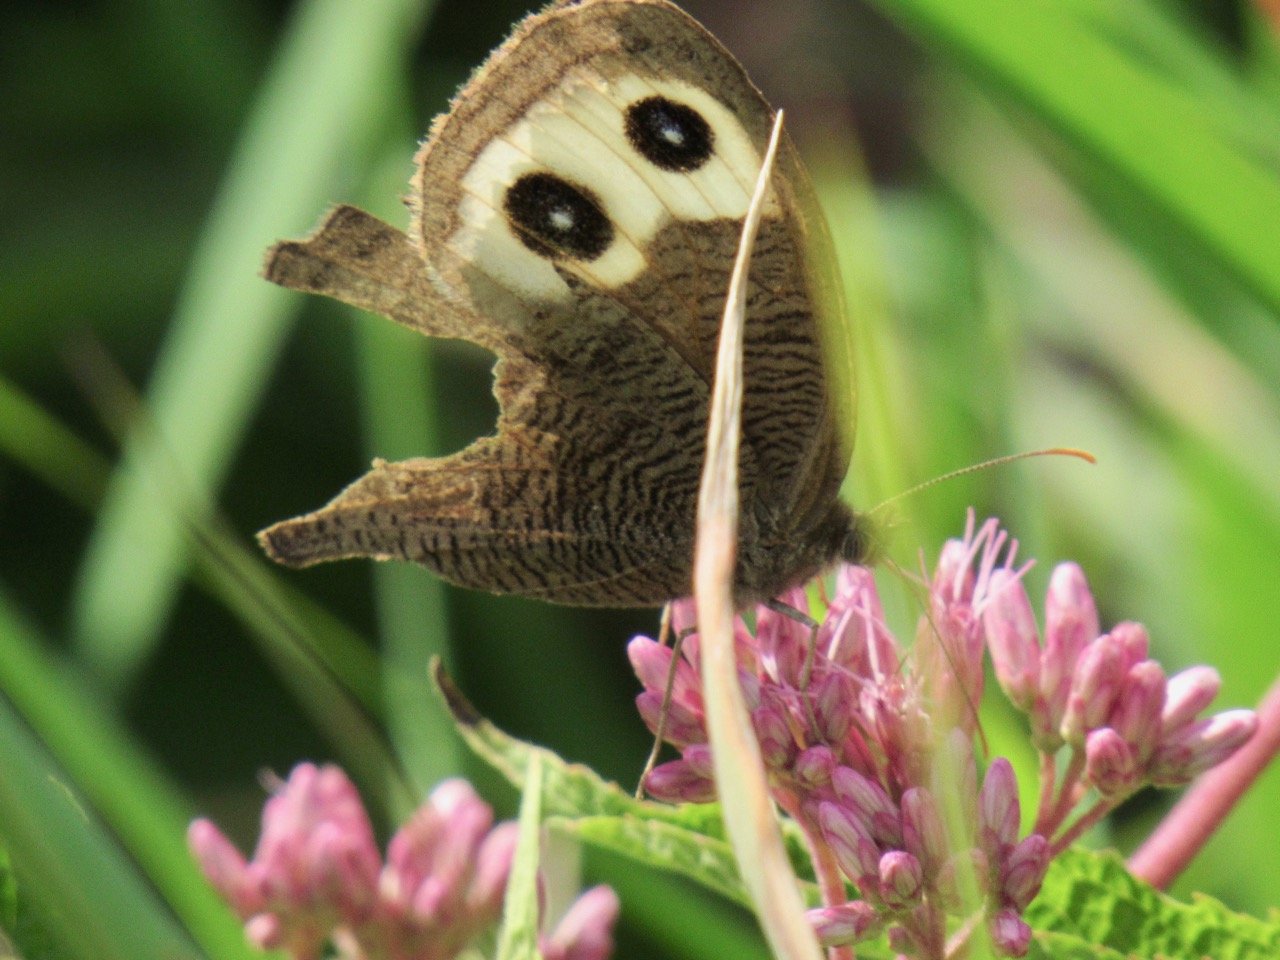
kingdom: Animalia
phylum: Arthropoda
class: Insecta
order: Lepidoptera
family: Nymphalidae
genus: Cercyonis
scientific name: Cercyonis pegala
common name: Common Wood-Nymph
